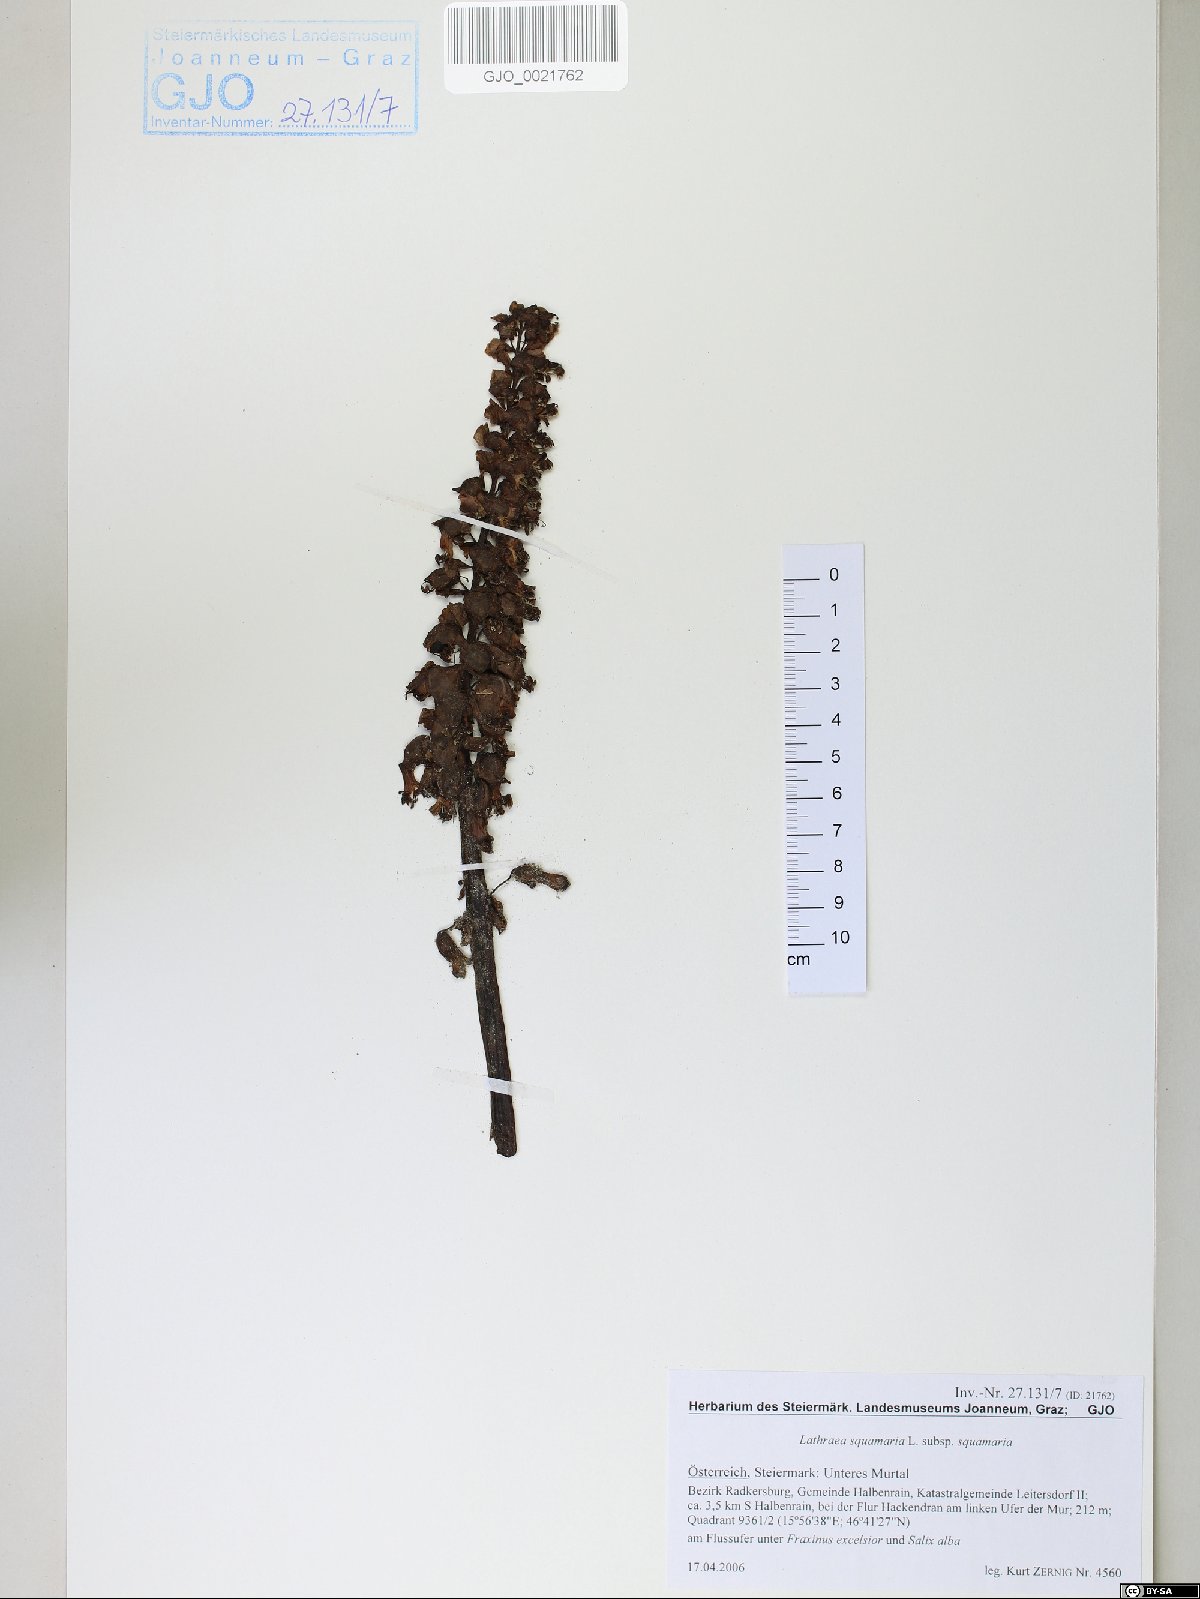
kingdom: Plantae
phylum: Tracheophyta
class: Magnoliopsida
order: Lamiales
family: Orobanchaceae
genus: Lathraea
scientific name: Lathraea squamaria
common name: Toothwort
